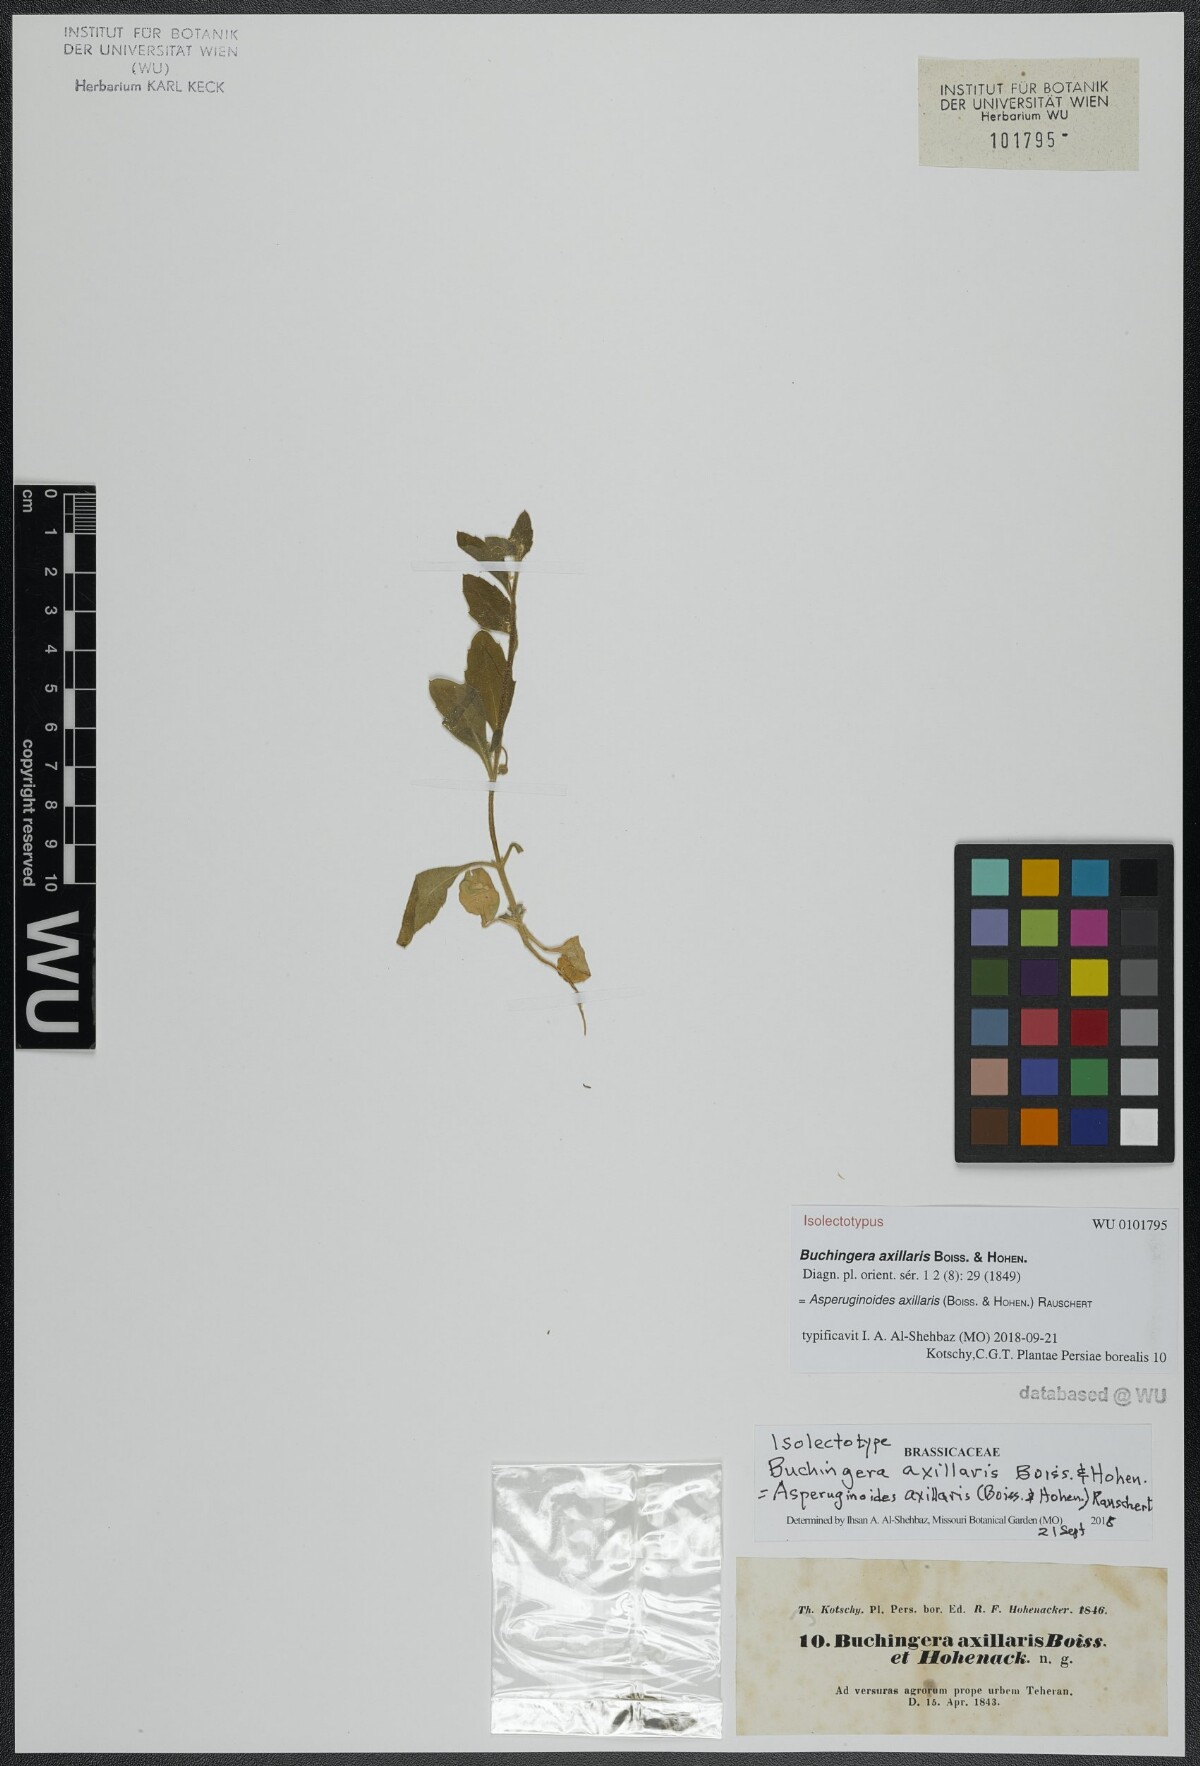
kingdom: Plantae
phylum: Tracheophyta
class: Magnoliopsida
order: Brassicales
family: Brassicaceae
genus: Asperuginoides
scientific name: Asperuginoides axillaris
